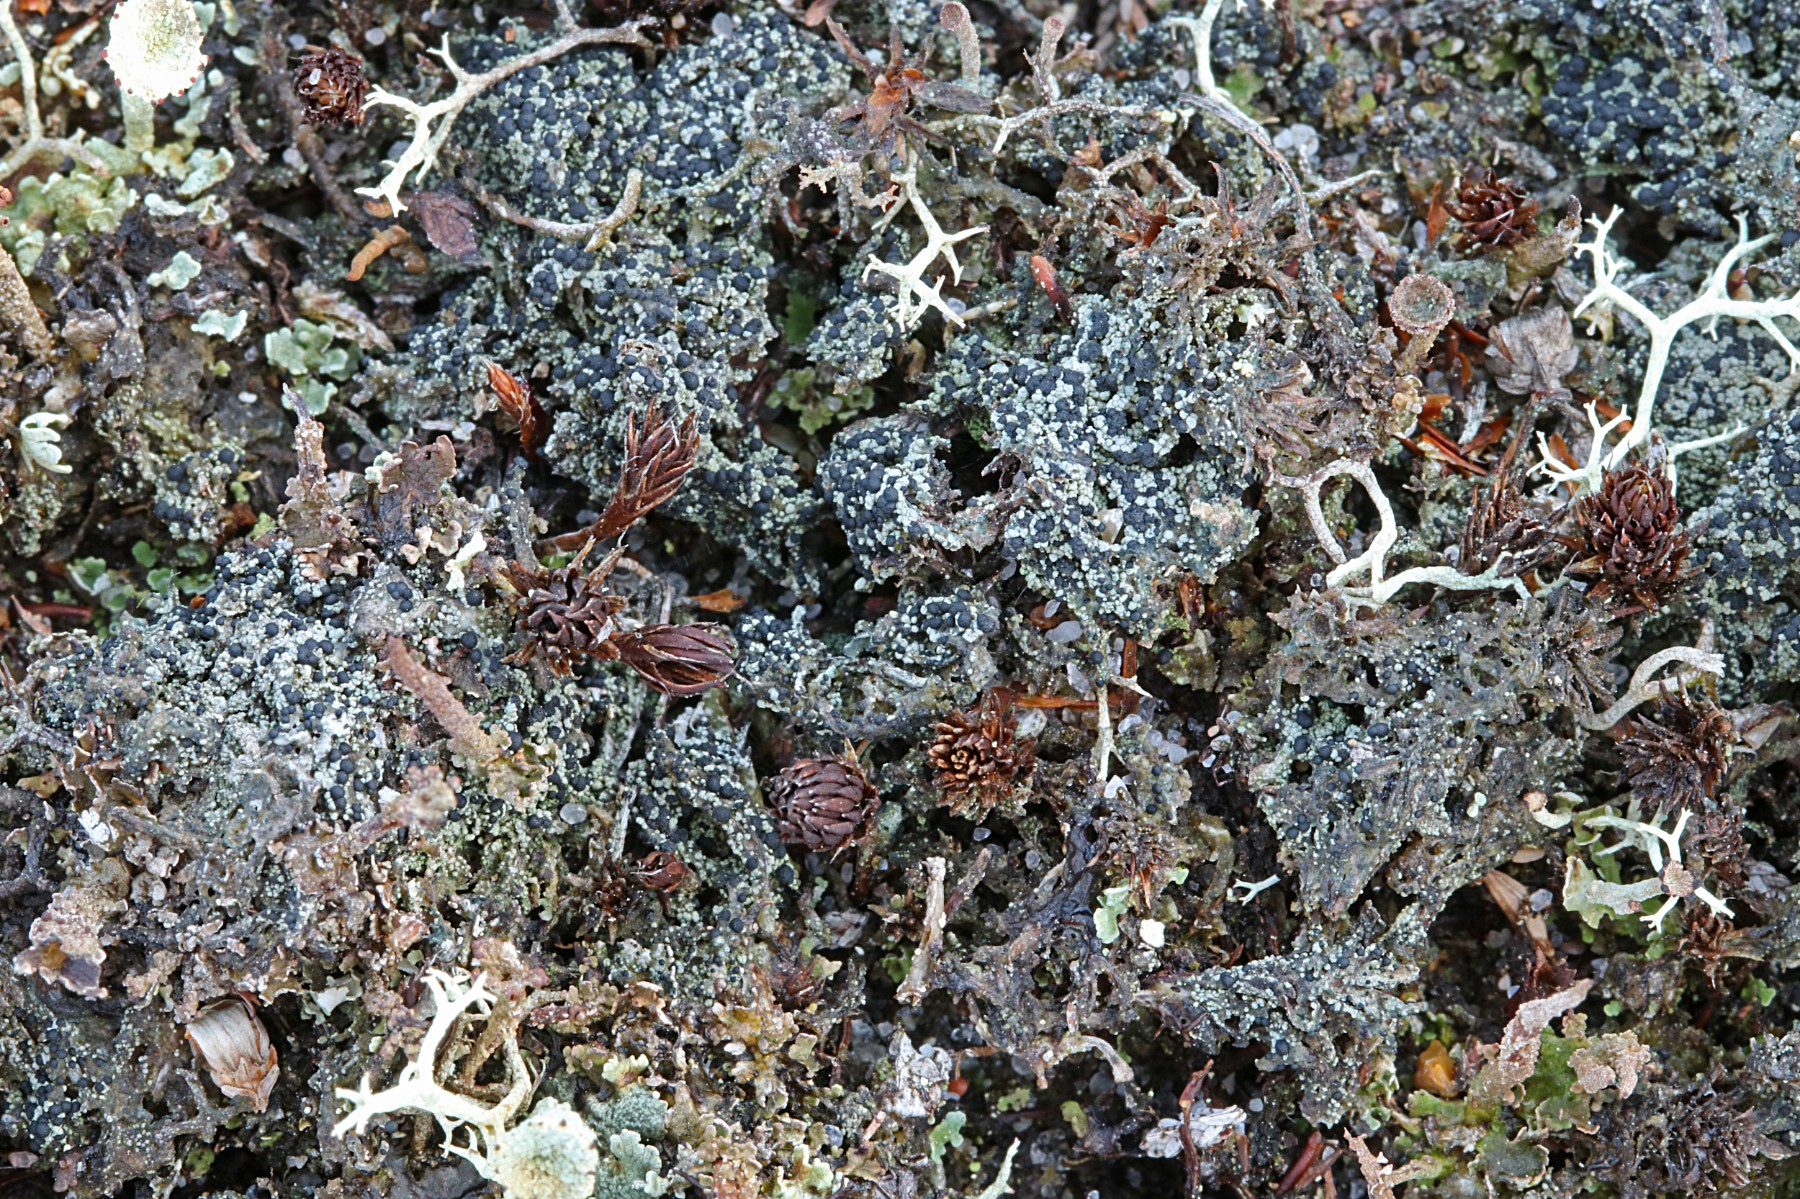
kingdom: Fungi
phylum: Ascomycota
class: Lecanoromycetes
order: Lecanorales
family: Byssolomataceae
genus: Micarea
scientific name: Micarea lignaria
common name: tørve-knaplav
